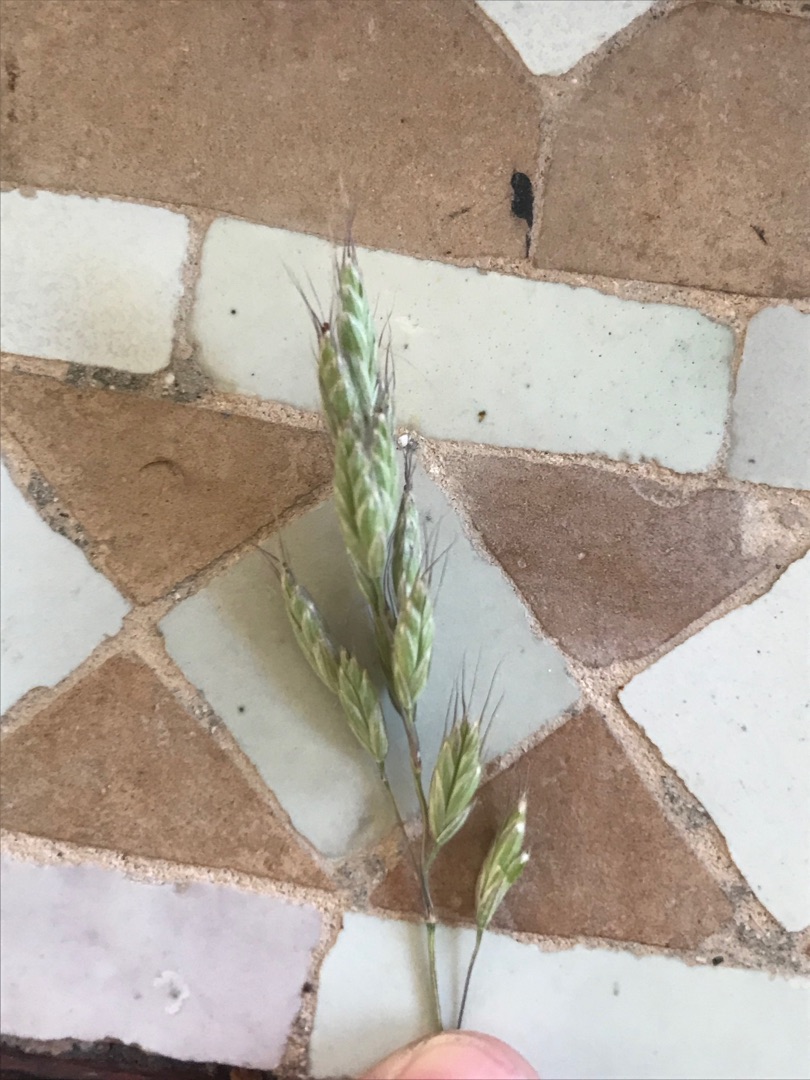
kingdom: Plantae
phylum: Tracheophyta
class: Liliopsida
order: Poales
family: Poaceae
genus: Bromus
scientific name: Bromus hordeaceus
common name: Blød hejre
